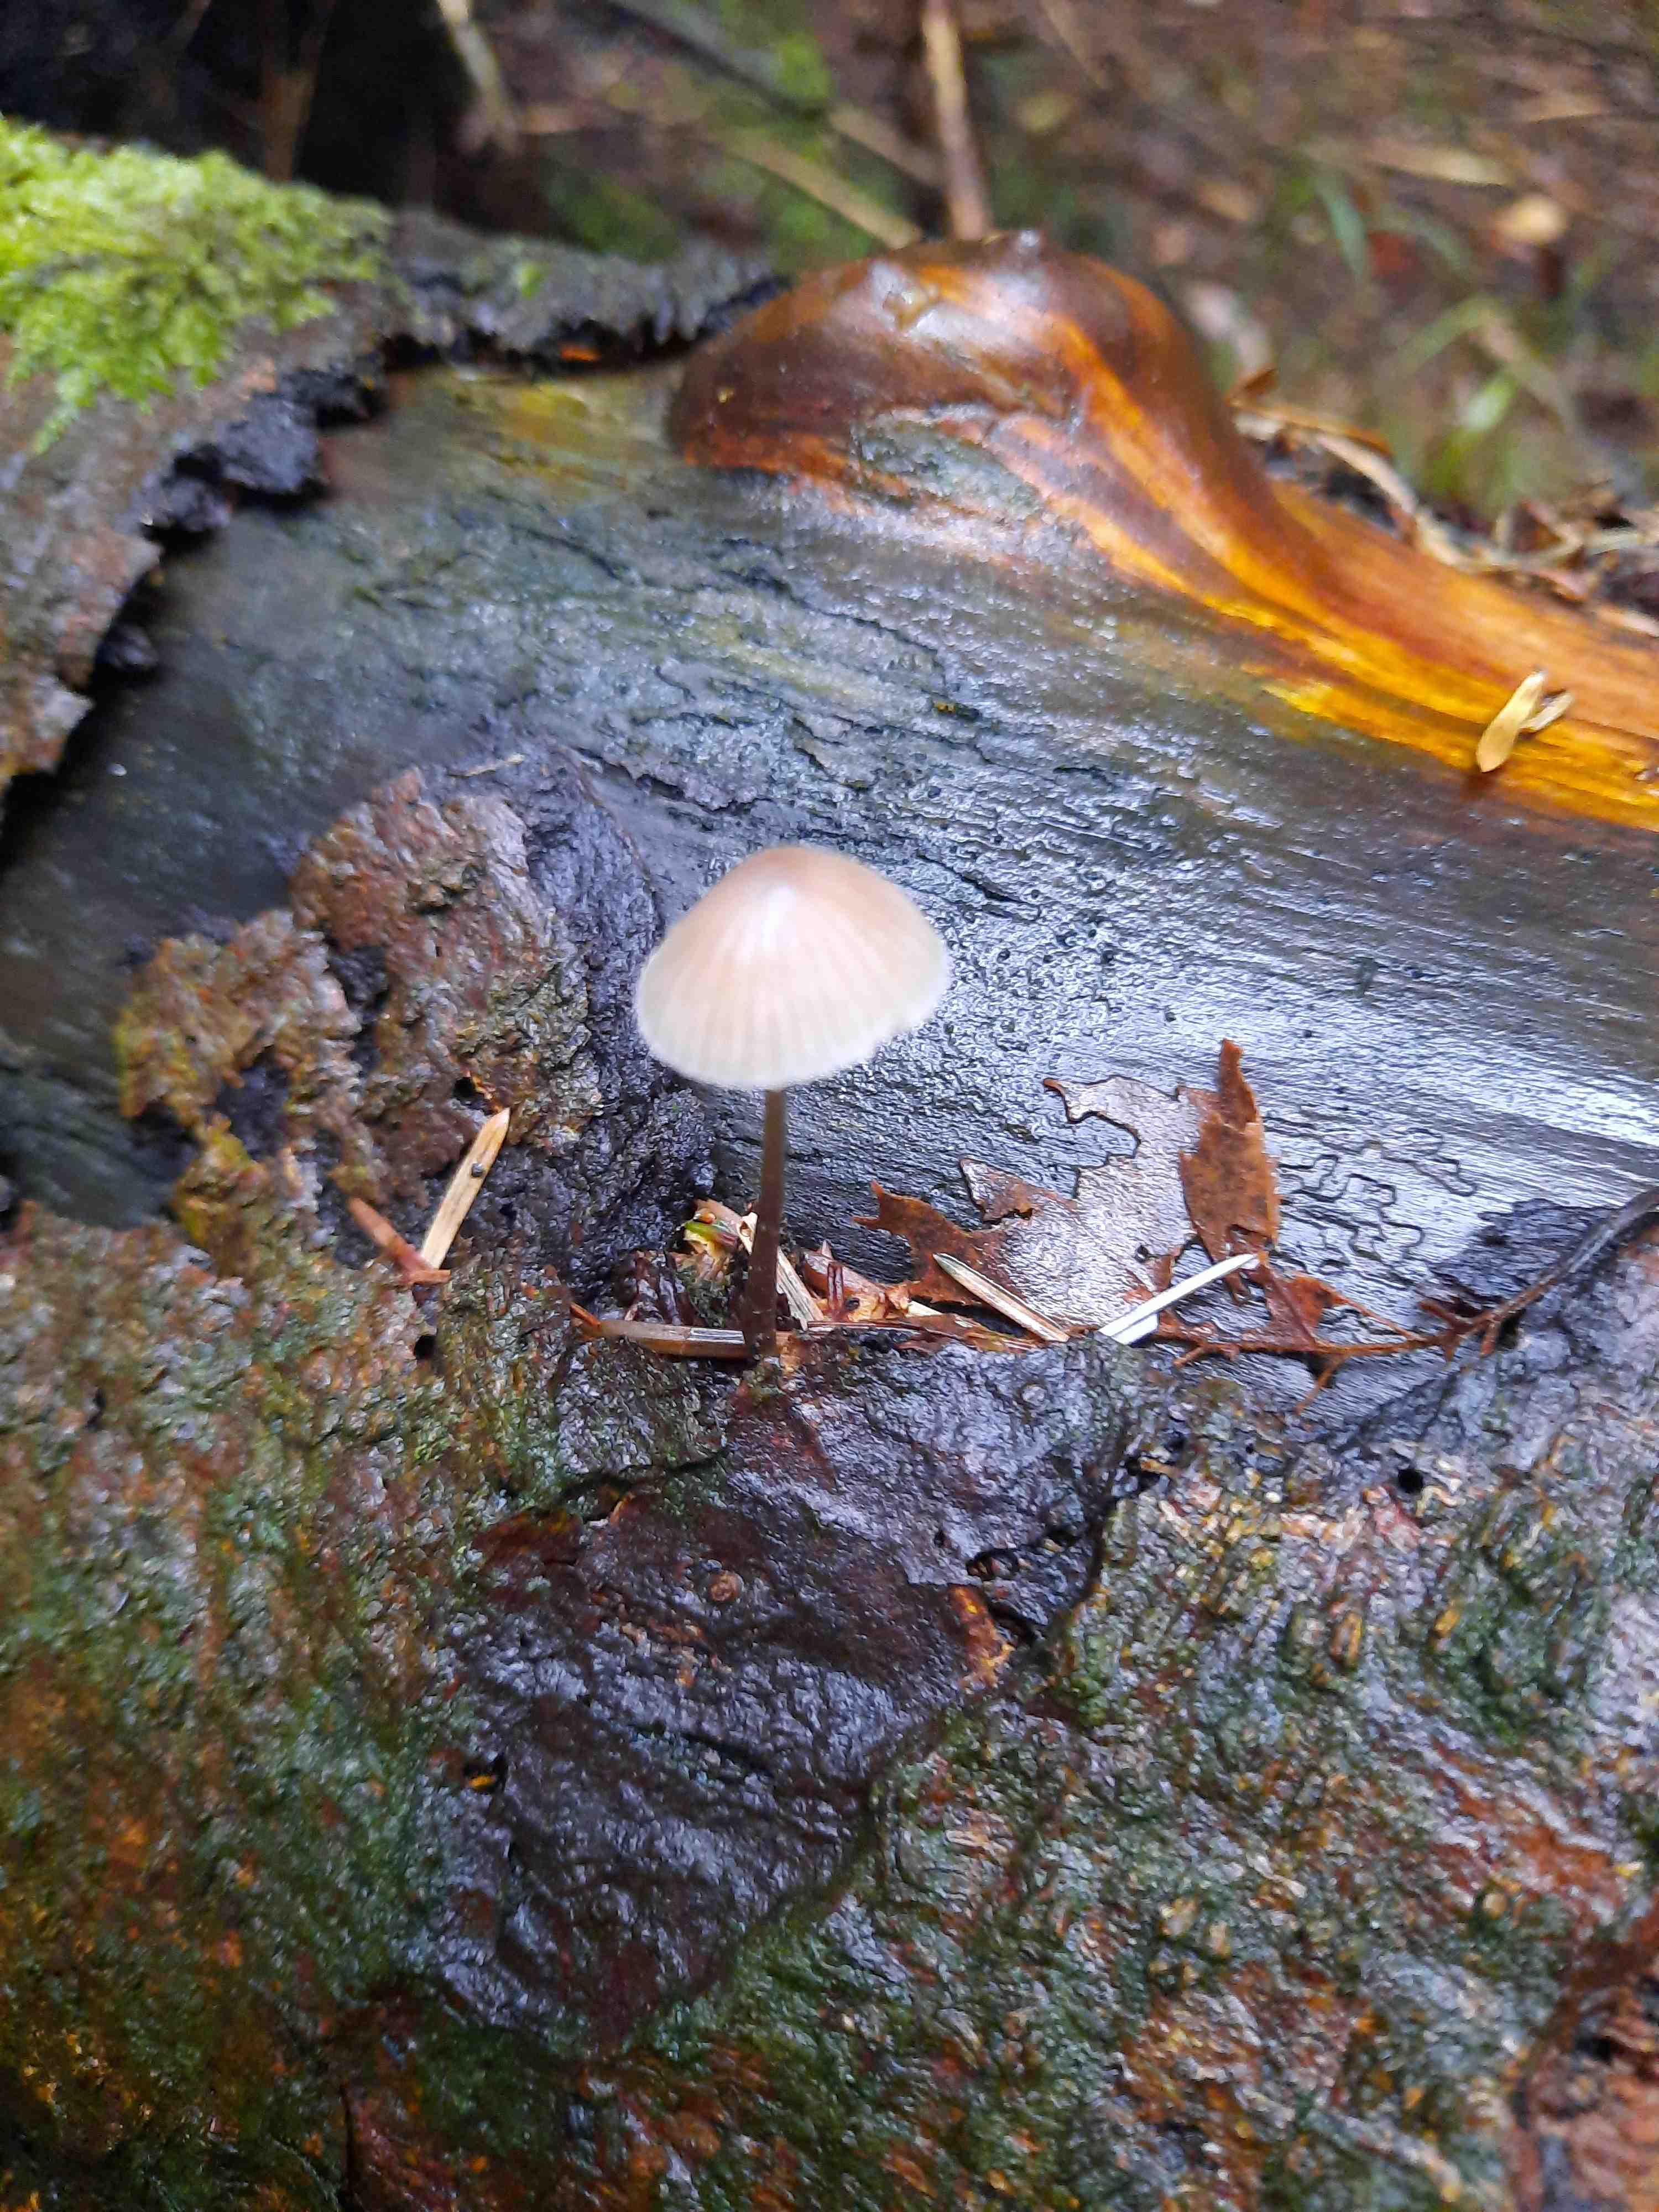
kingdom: Fungi
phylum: Basidiomycota
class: Agaricomycetes
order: Agaricales
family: Mycenaceae
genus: Mycena
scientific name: Mycena
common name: huesvamp
